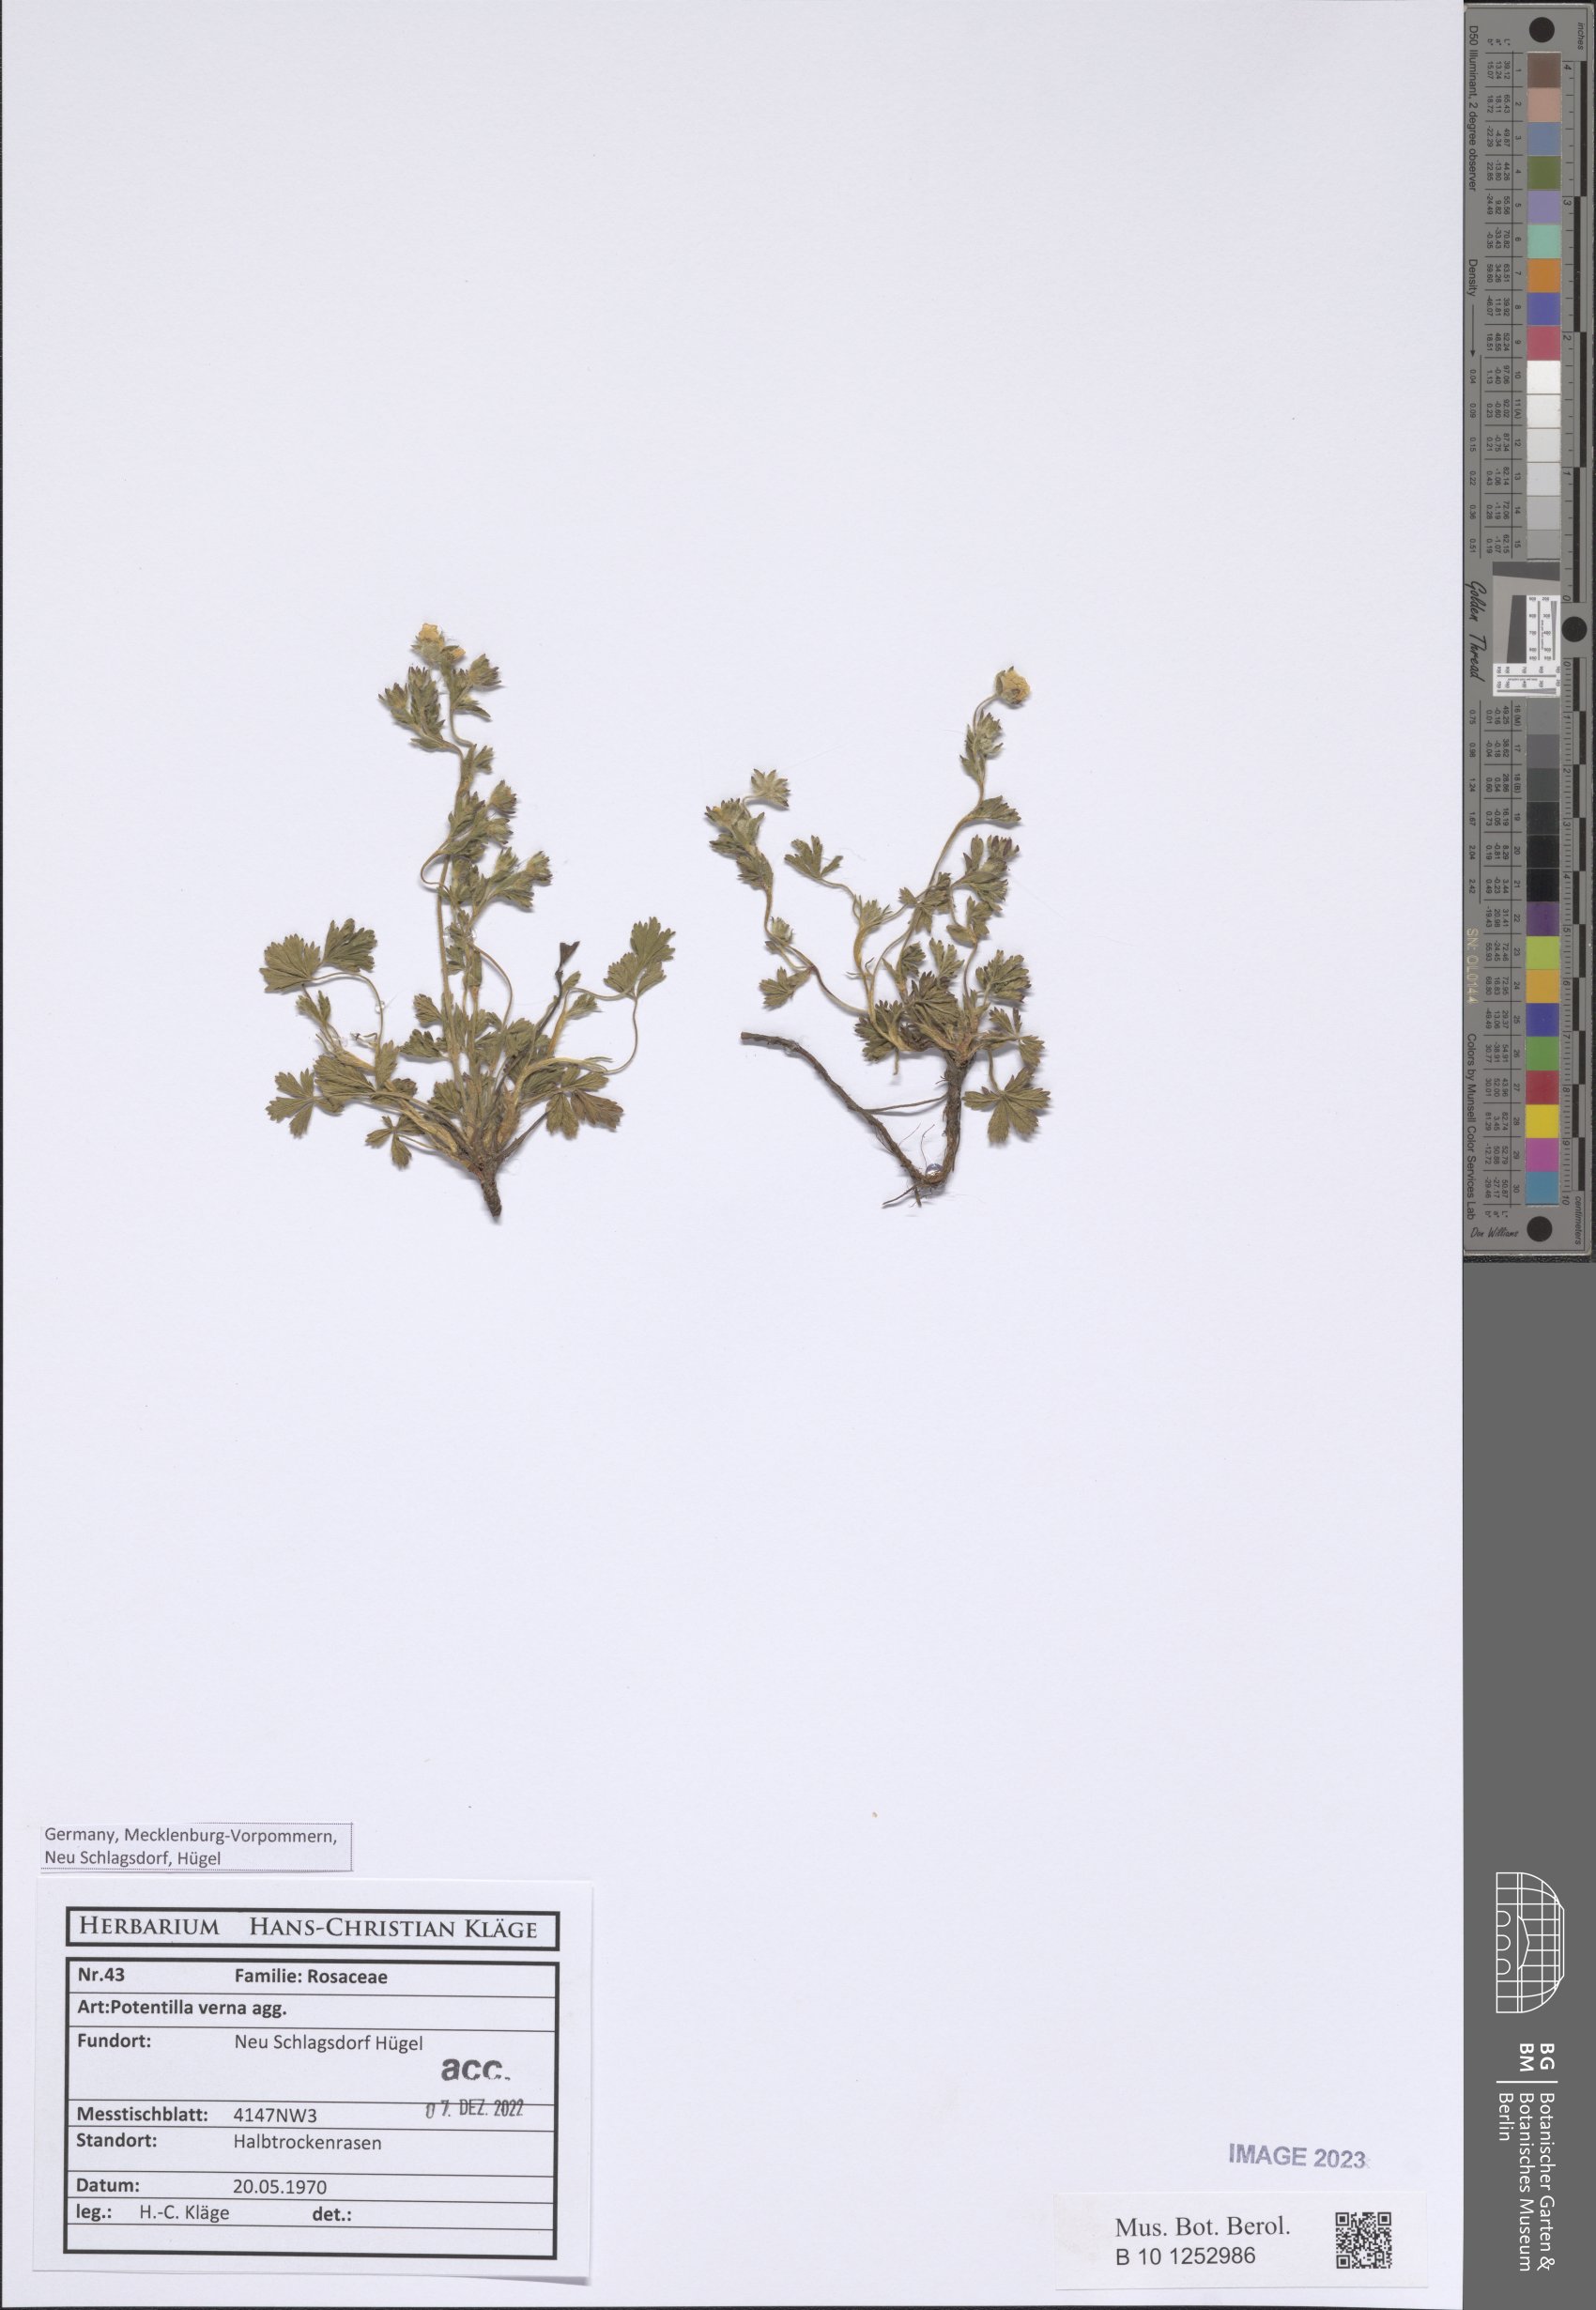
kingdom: Plantae
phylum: Tracheophyta
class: Magnoliopsida
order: Rosales
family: Rosaceae
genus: Potentilla
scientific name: Potentilla verna
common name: Spring cinquefoil
